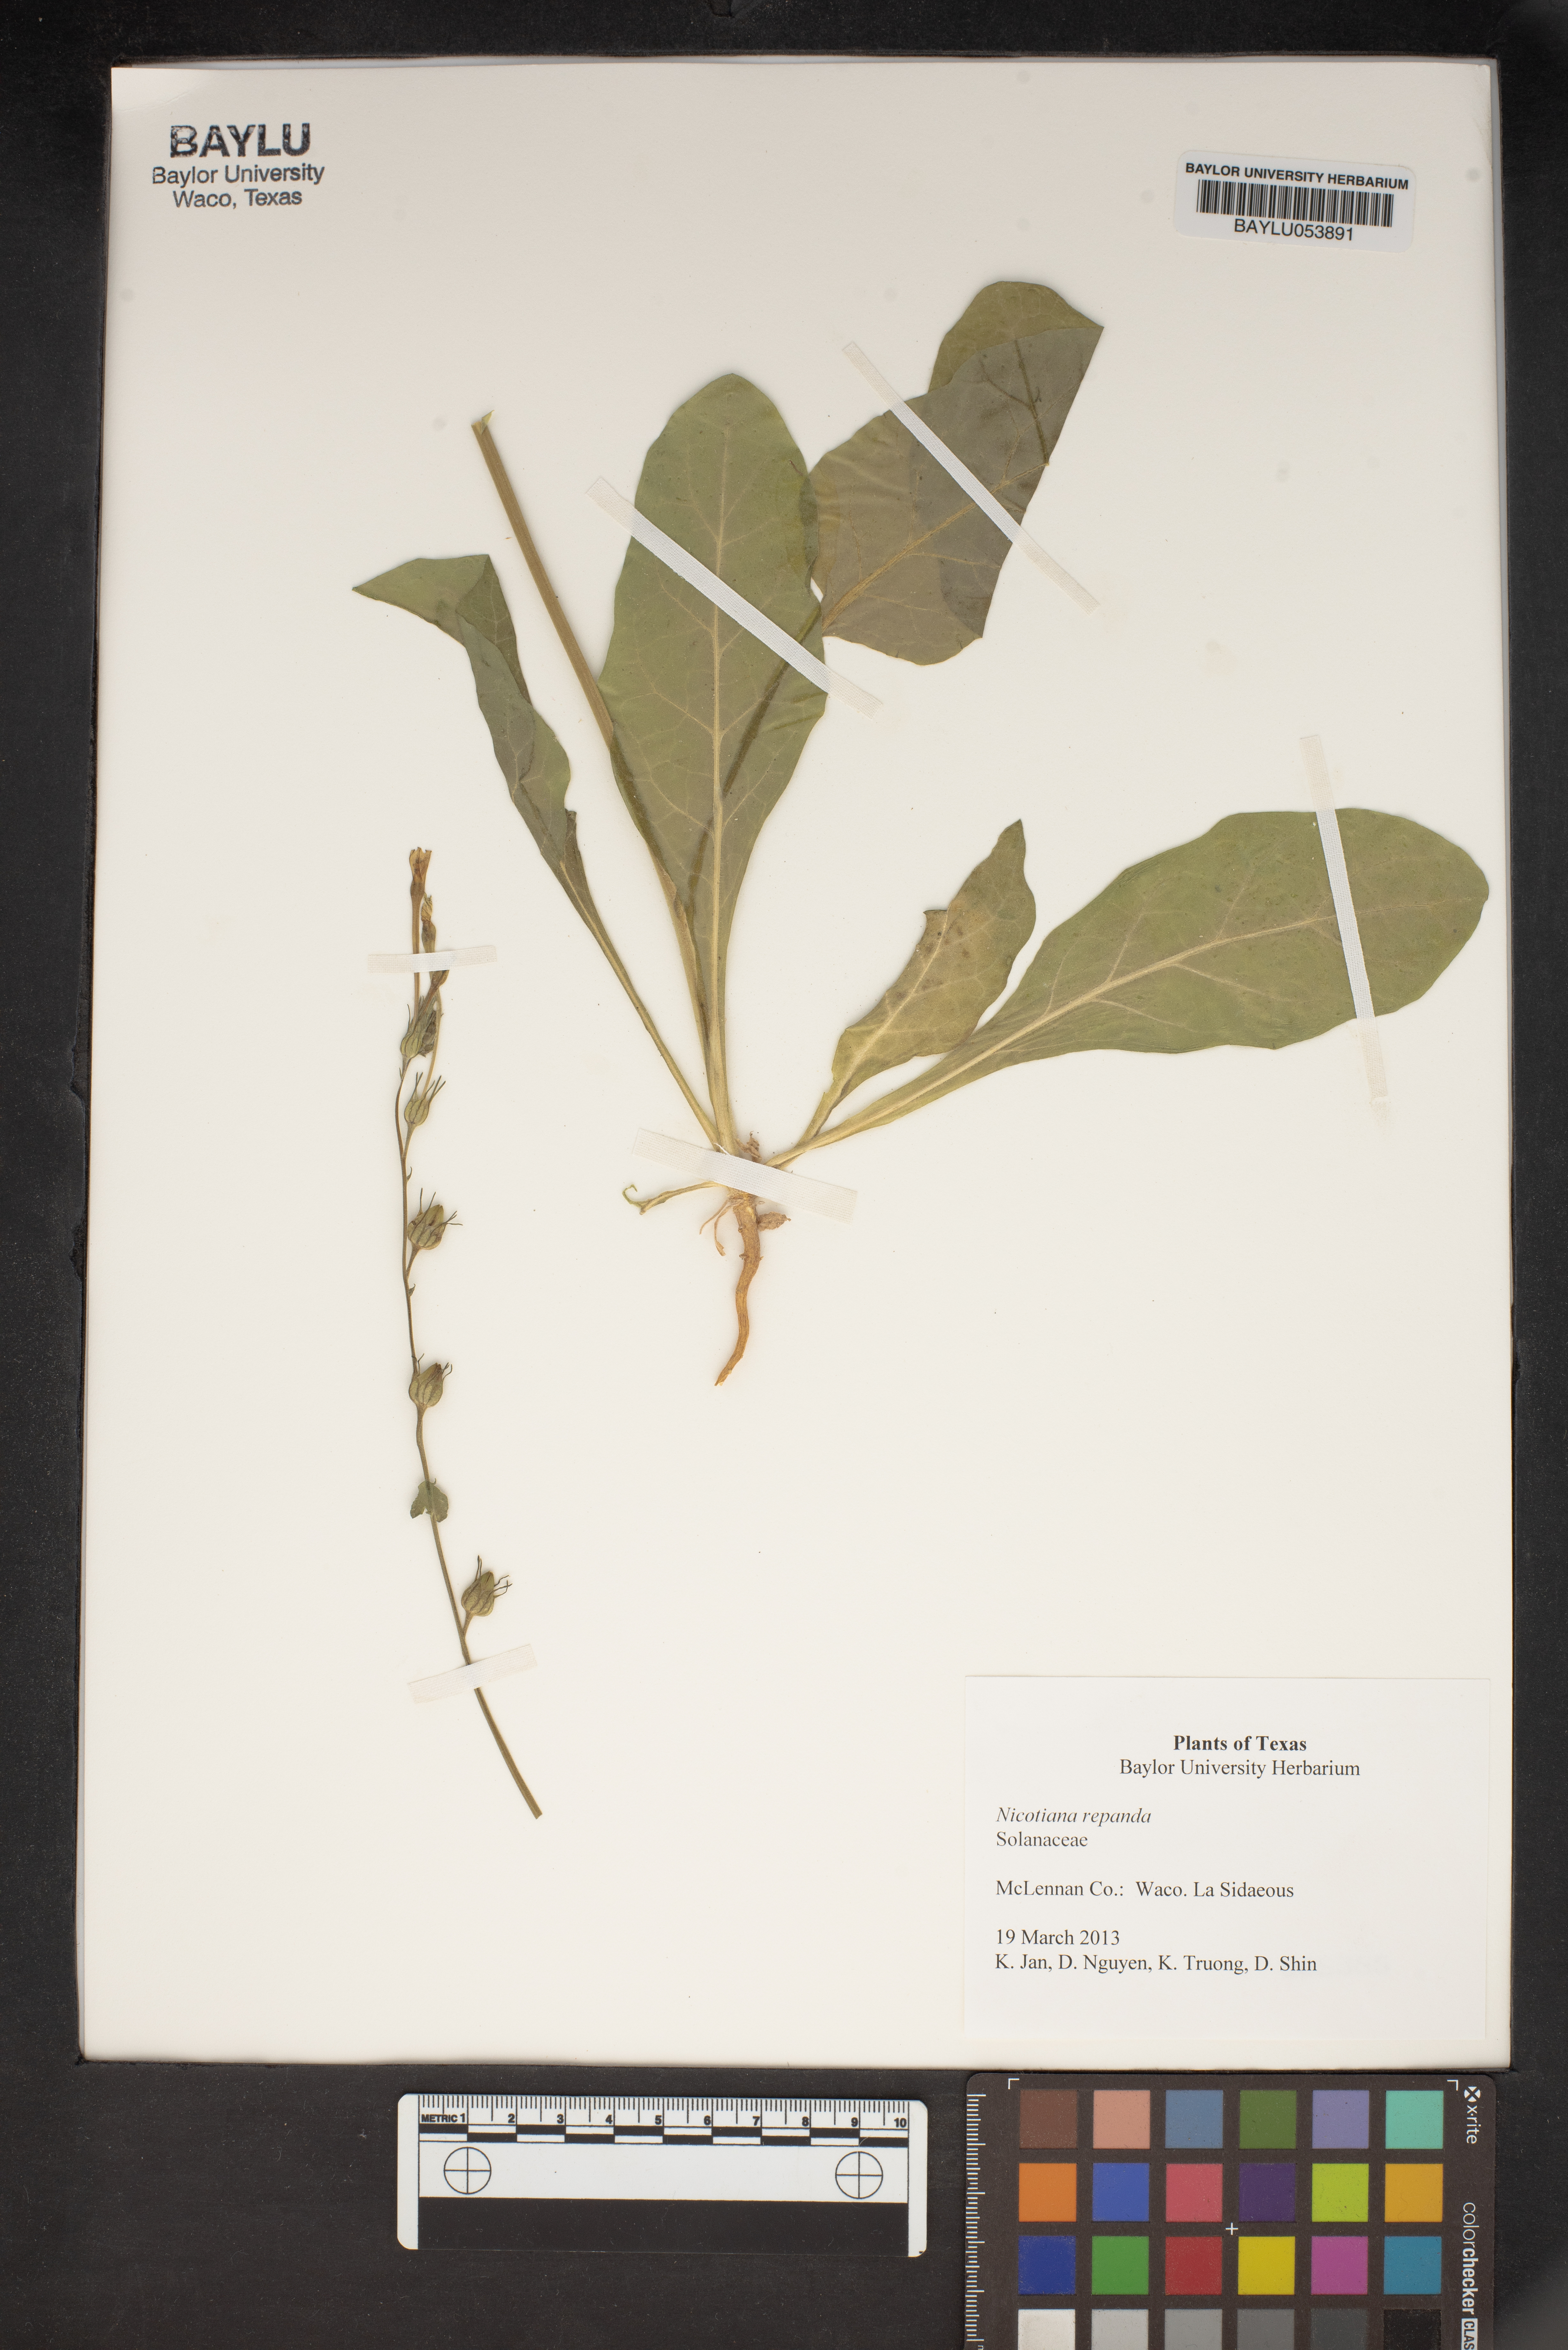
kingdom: Plantae
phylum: Tracheophyta
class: Magnoliopsida
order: Solanales
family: Solanaceae
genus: Nicotiana
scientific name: Nicotiana repanda
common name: Fiddle-leaf tobacco
